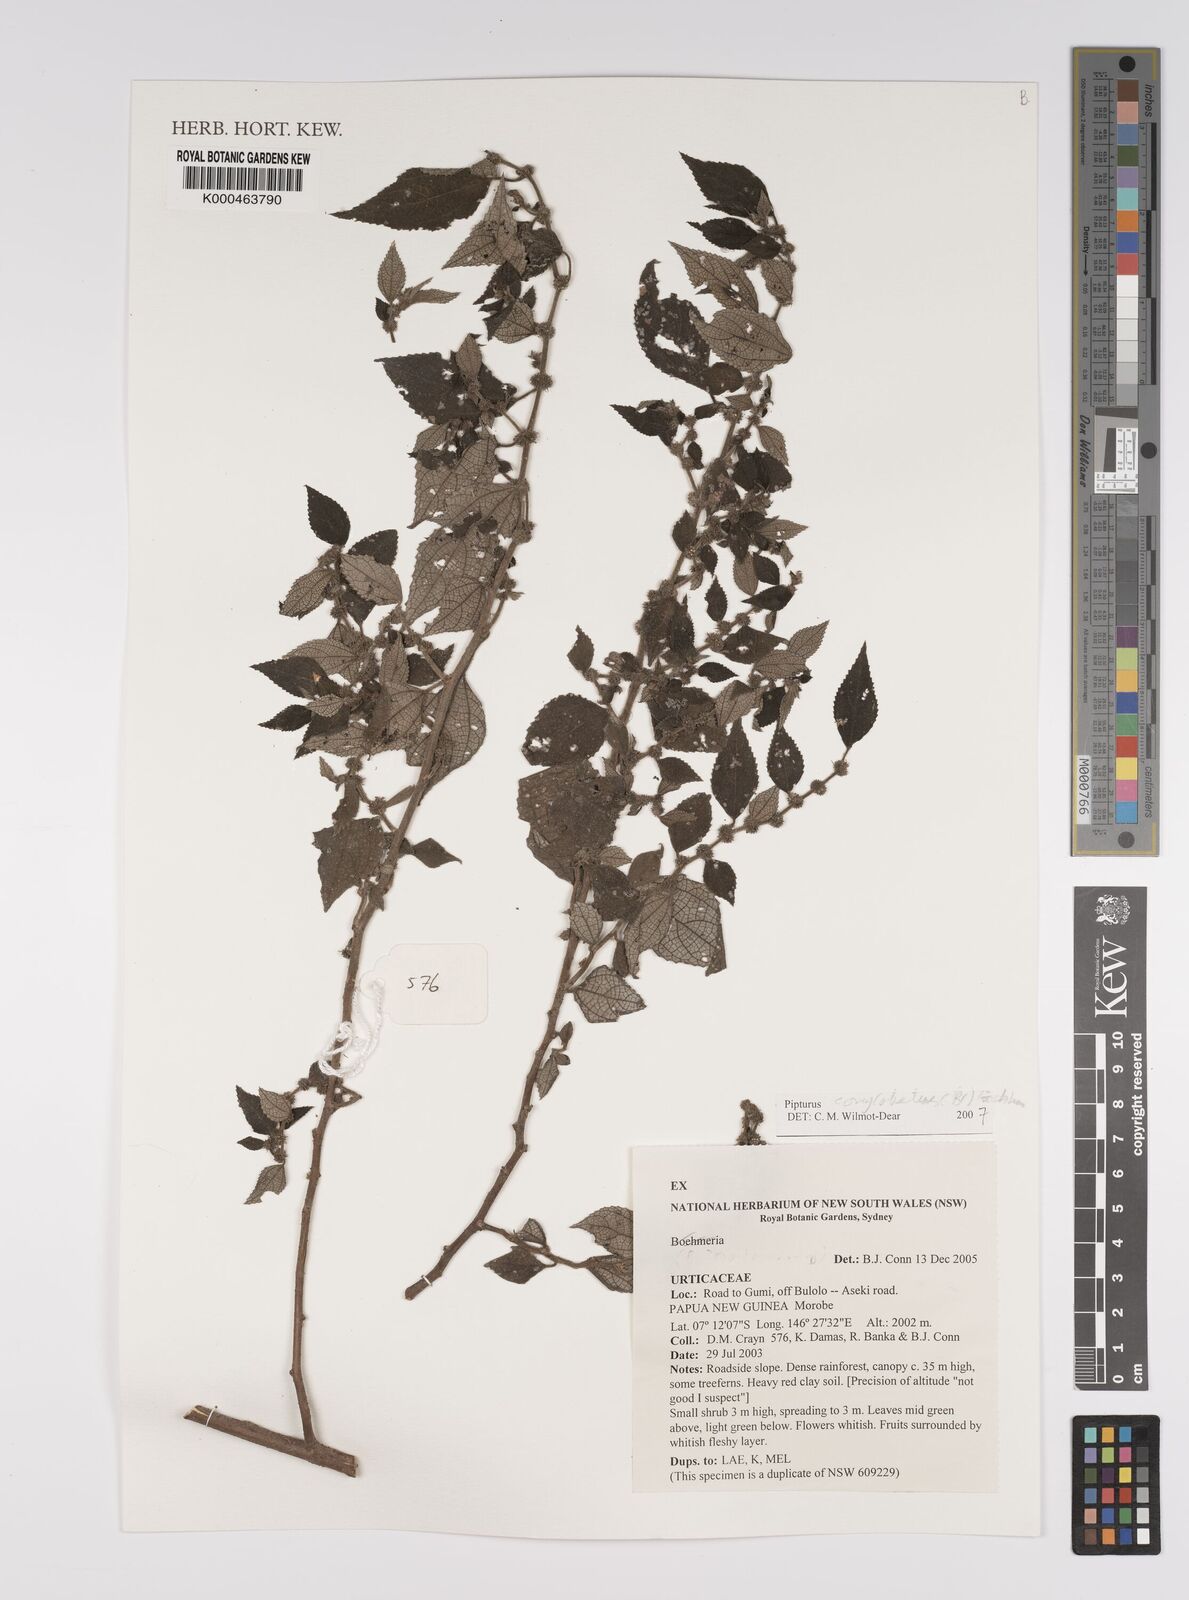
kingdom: Plantae
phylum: Tracheophyta
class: Magnoliopsida
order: Rosales
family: Urticaceae
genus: Pipturus
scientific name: Pipturus
